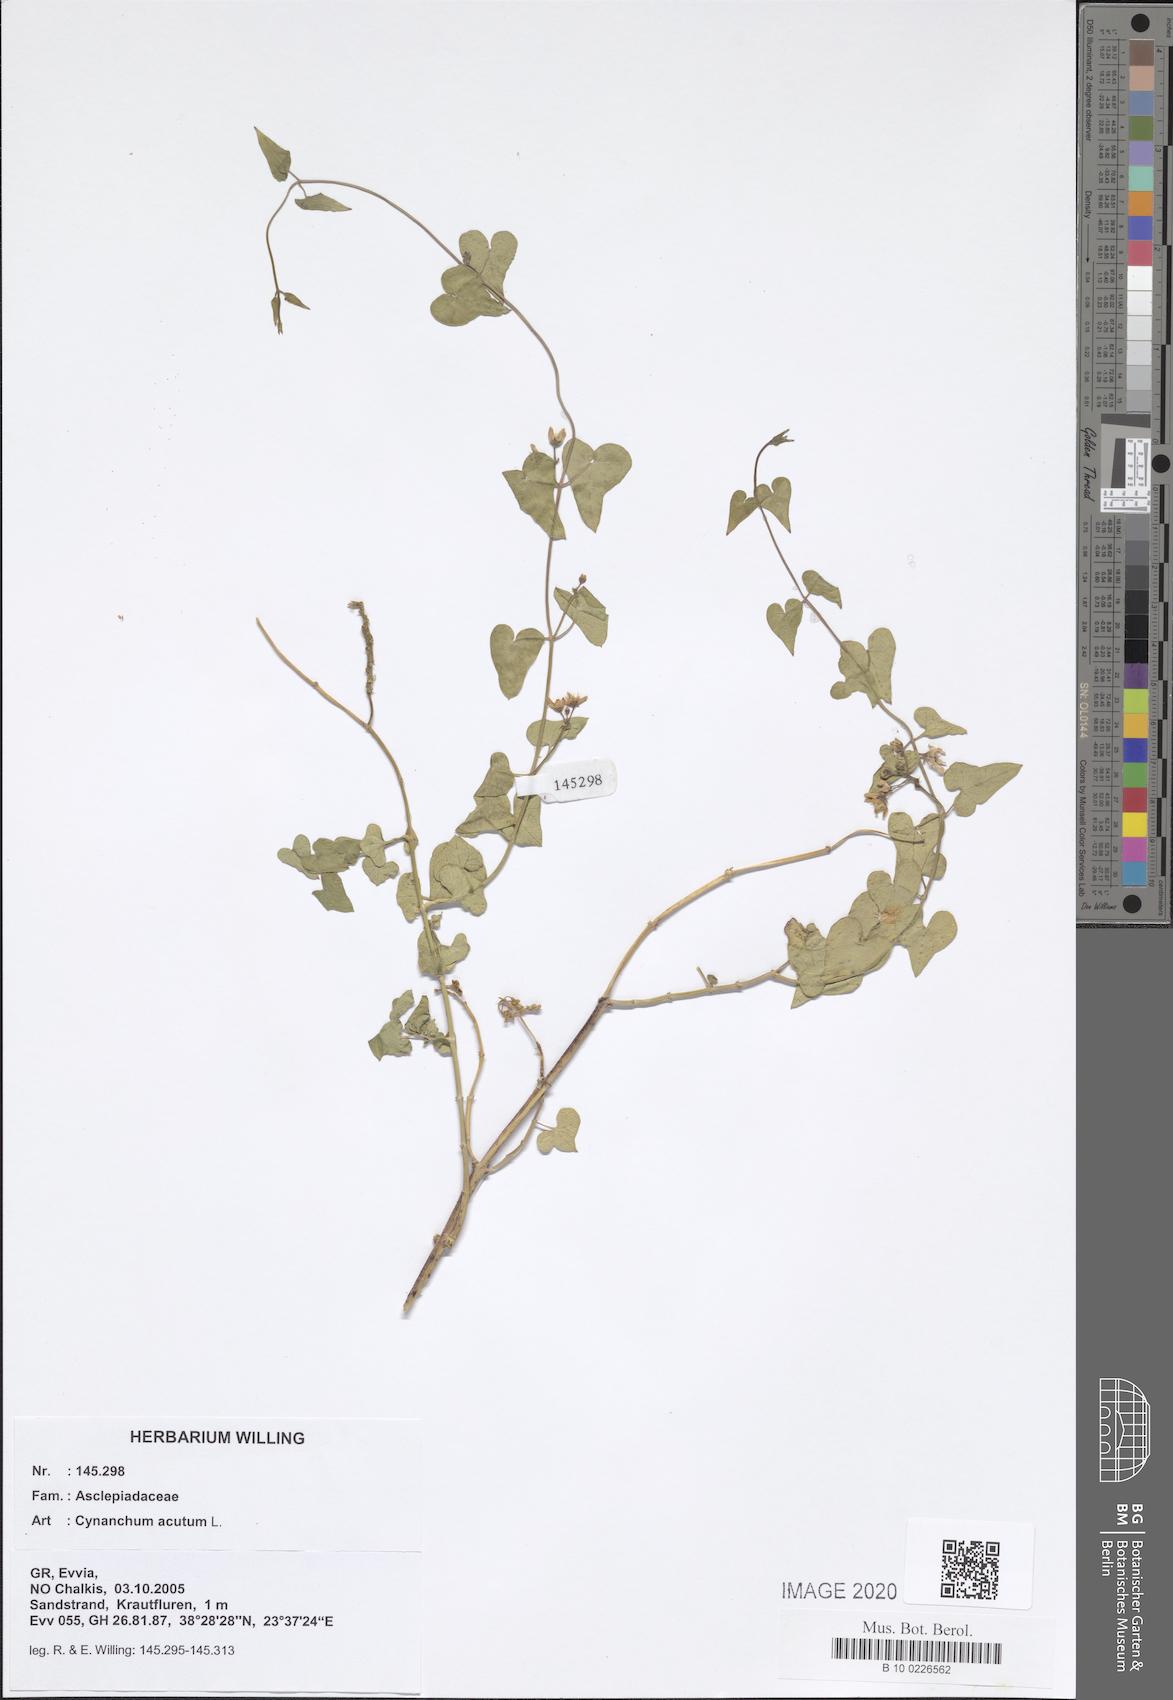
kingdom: Plantae
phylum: Tracheophyta
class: Magnoliopsida
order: Gentianales
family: Apocynaceae
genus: Cynanchum
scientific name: Cynanchum acutum
